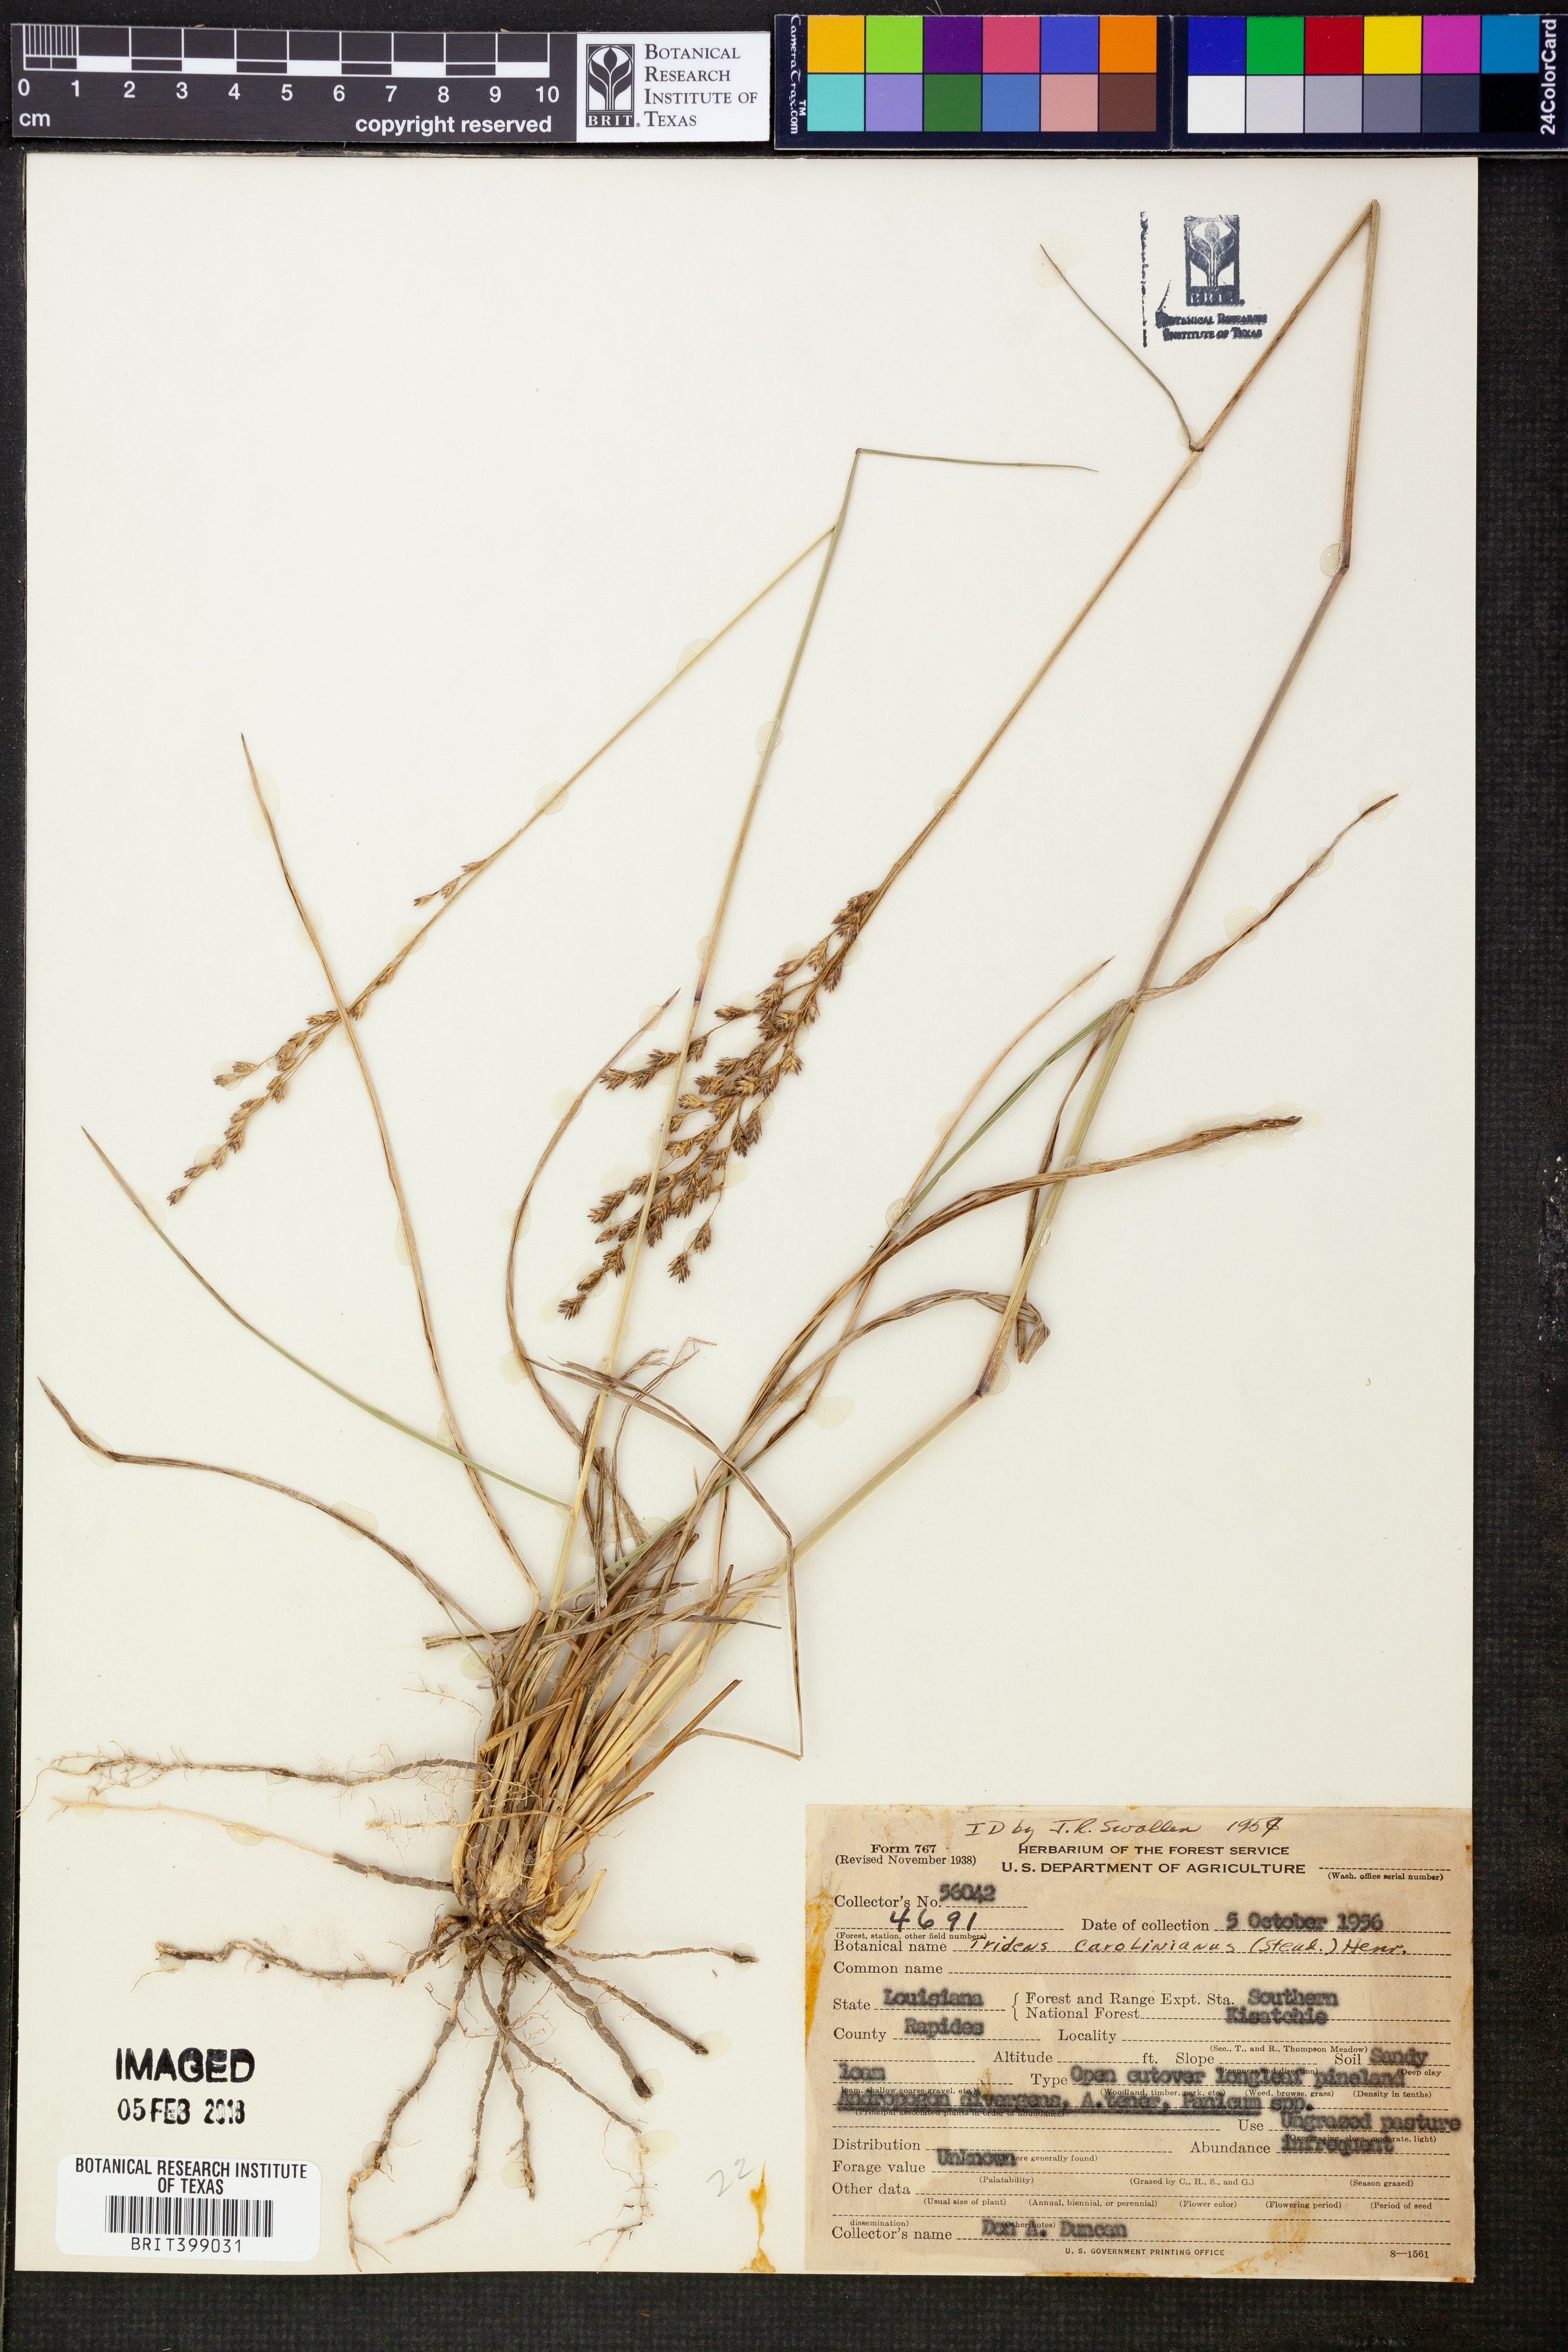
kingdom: Plantae
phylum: Tracheophyta
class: Liliopsida
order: Poales
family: Poaceae
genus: Tridens
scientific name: Tridens carolinianus
